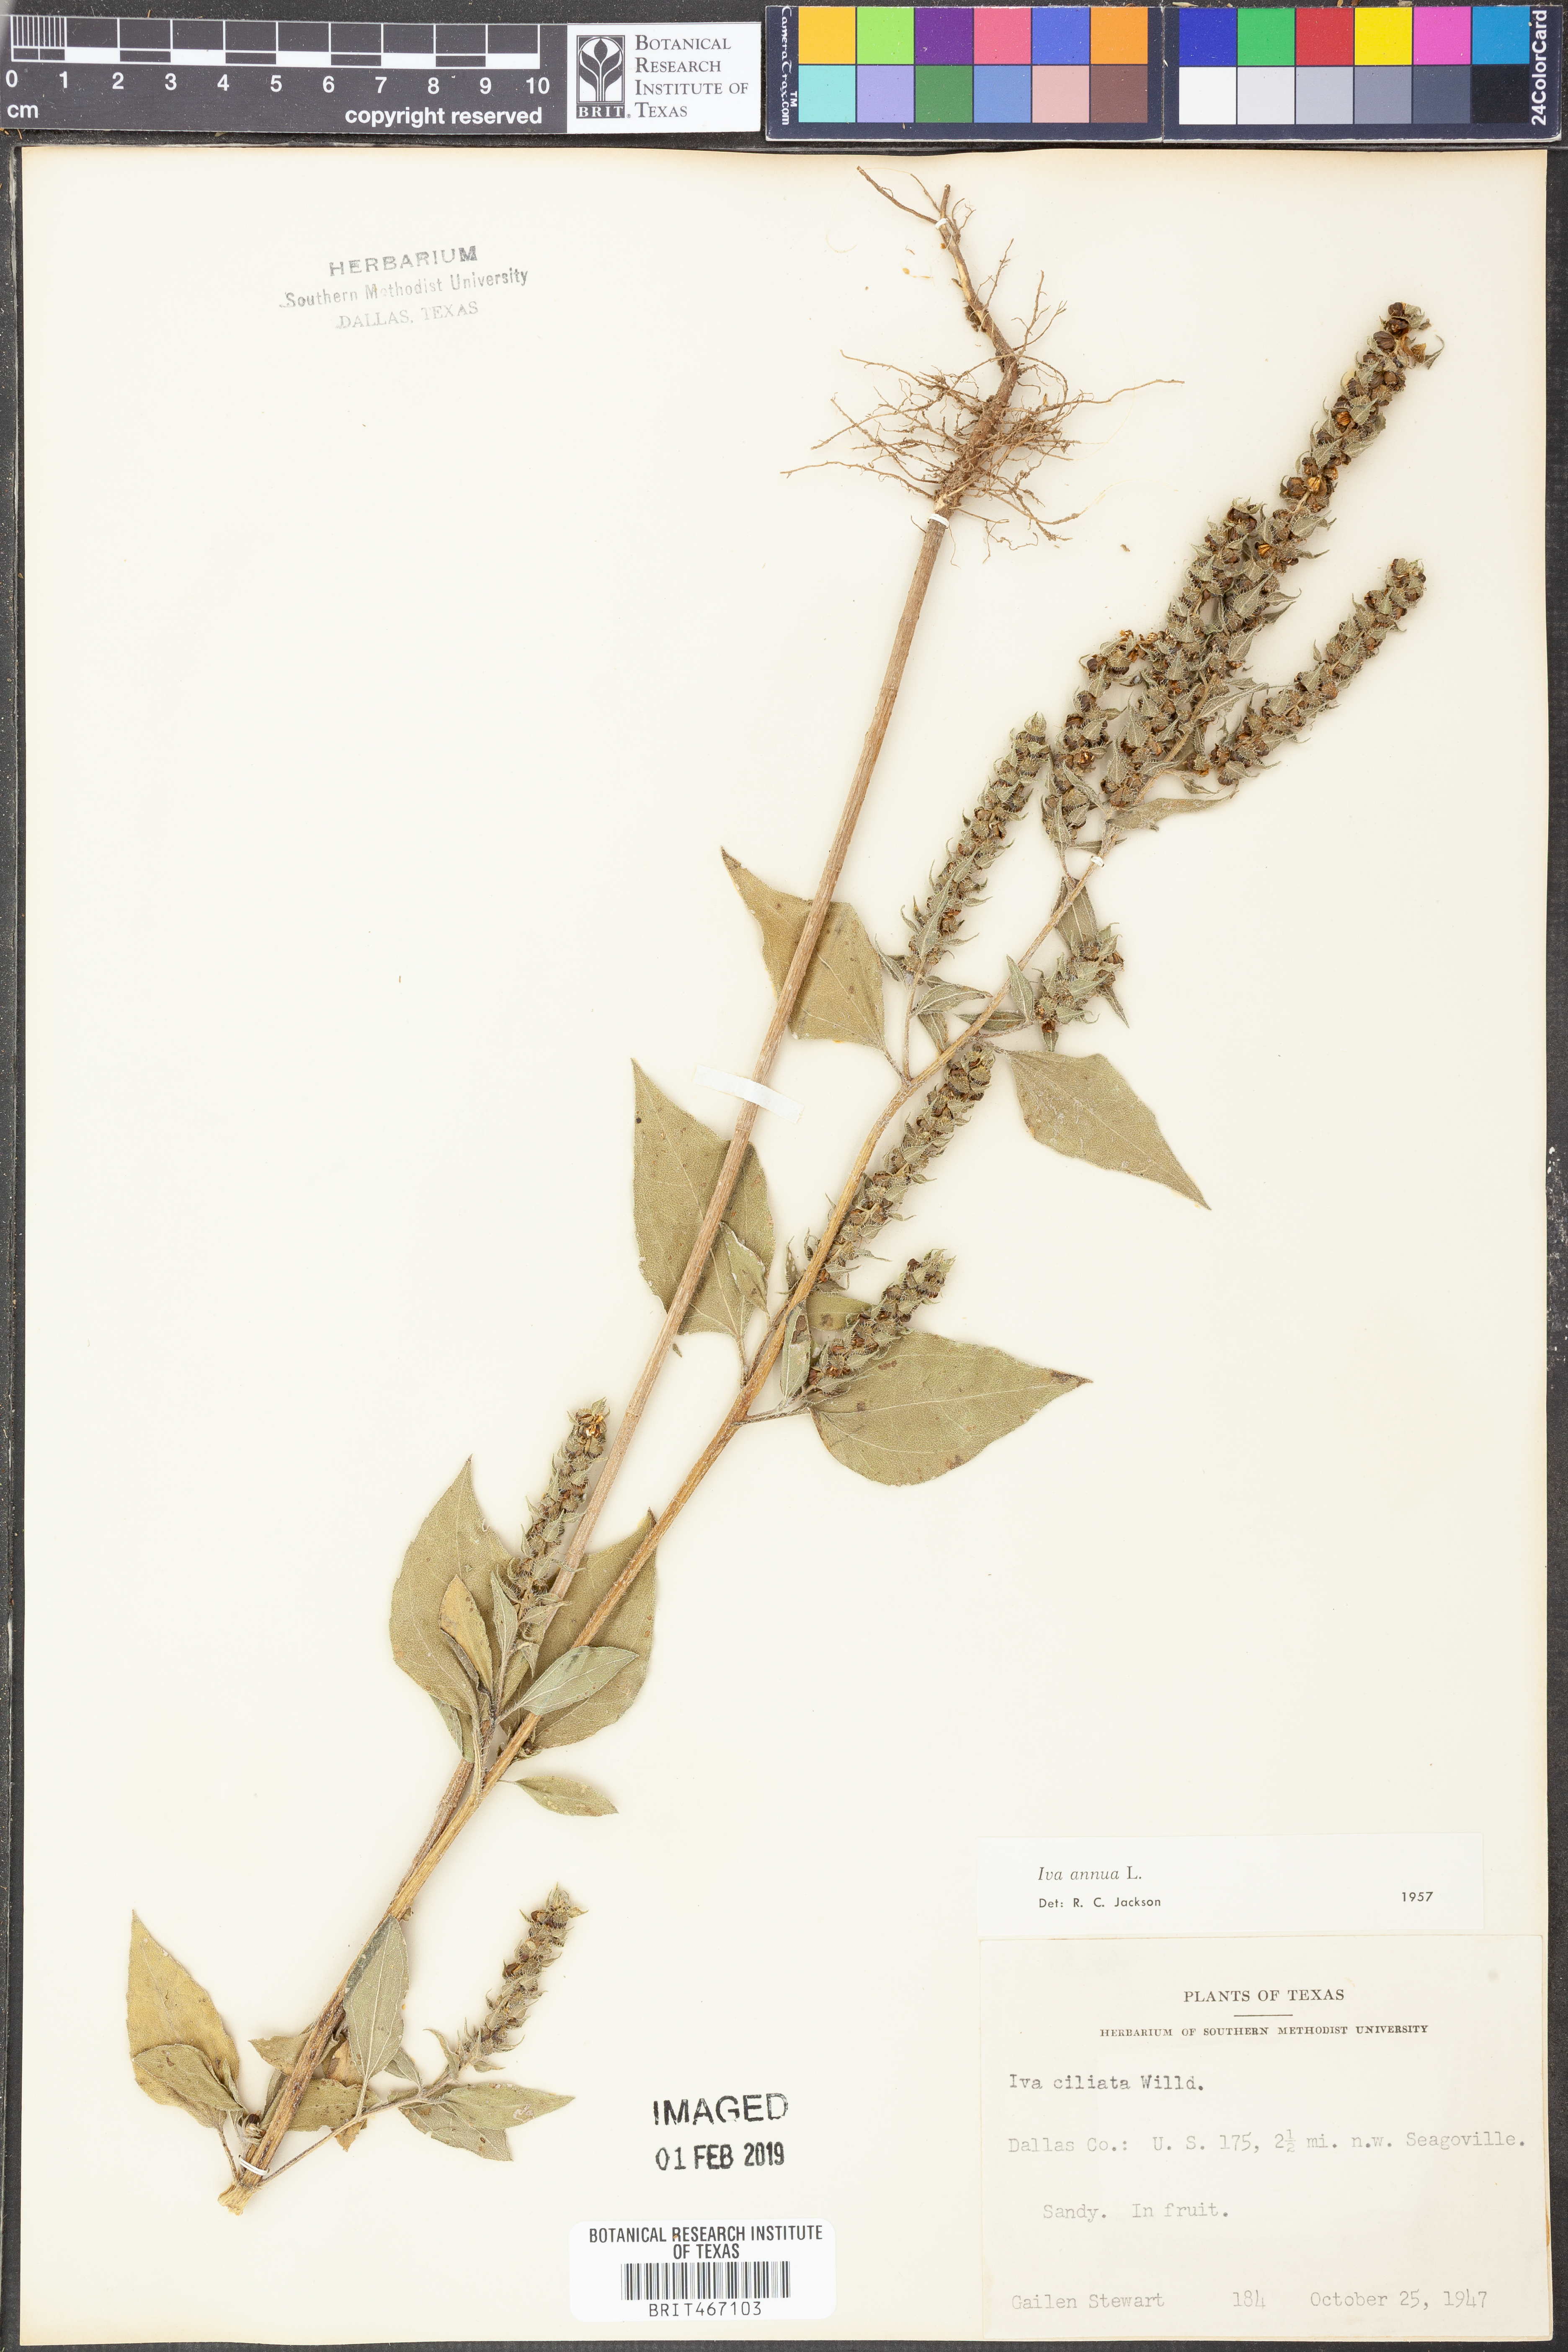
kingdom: Plantae
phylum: Tracheophyta
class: Magnoliopsida
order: Asterales
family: Asteraceae
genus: Iva
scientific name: Iva annua
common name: Marsh-elder
